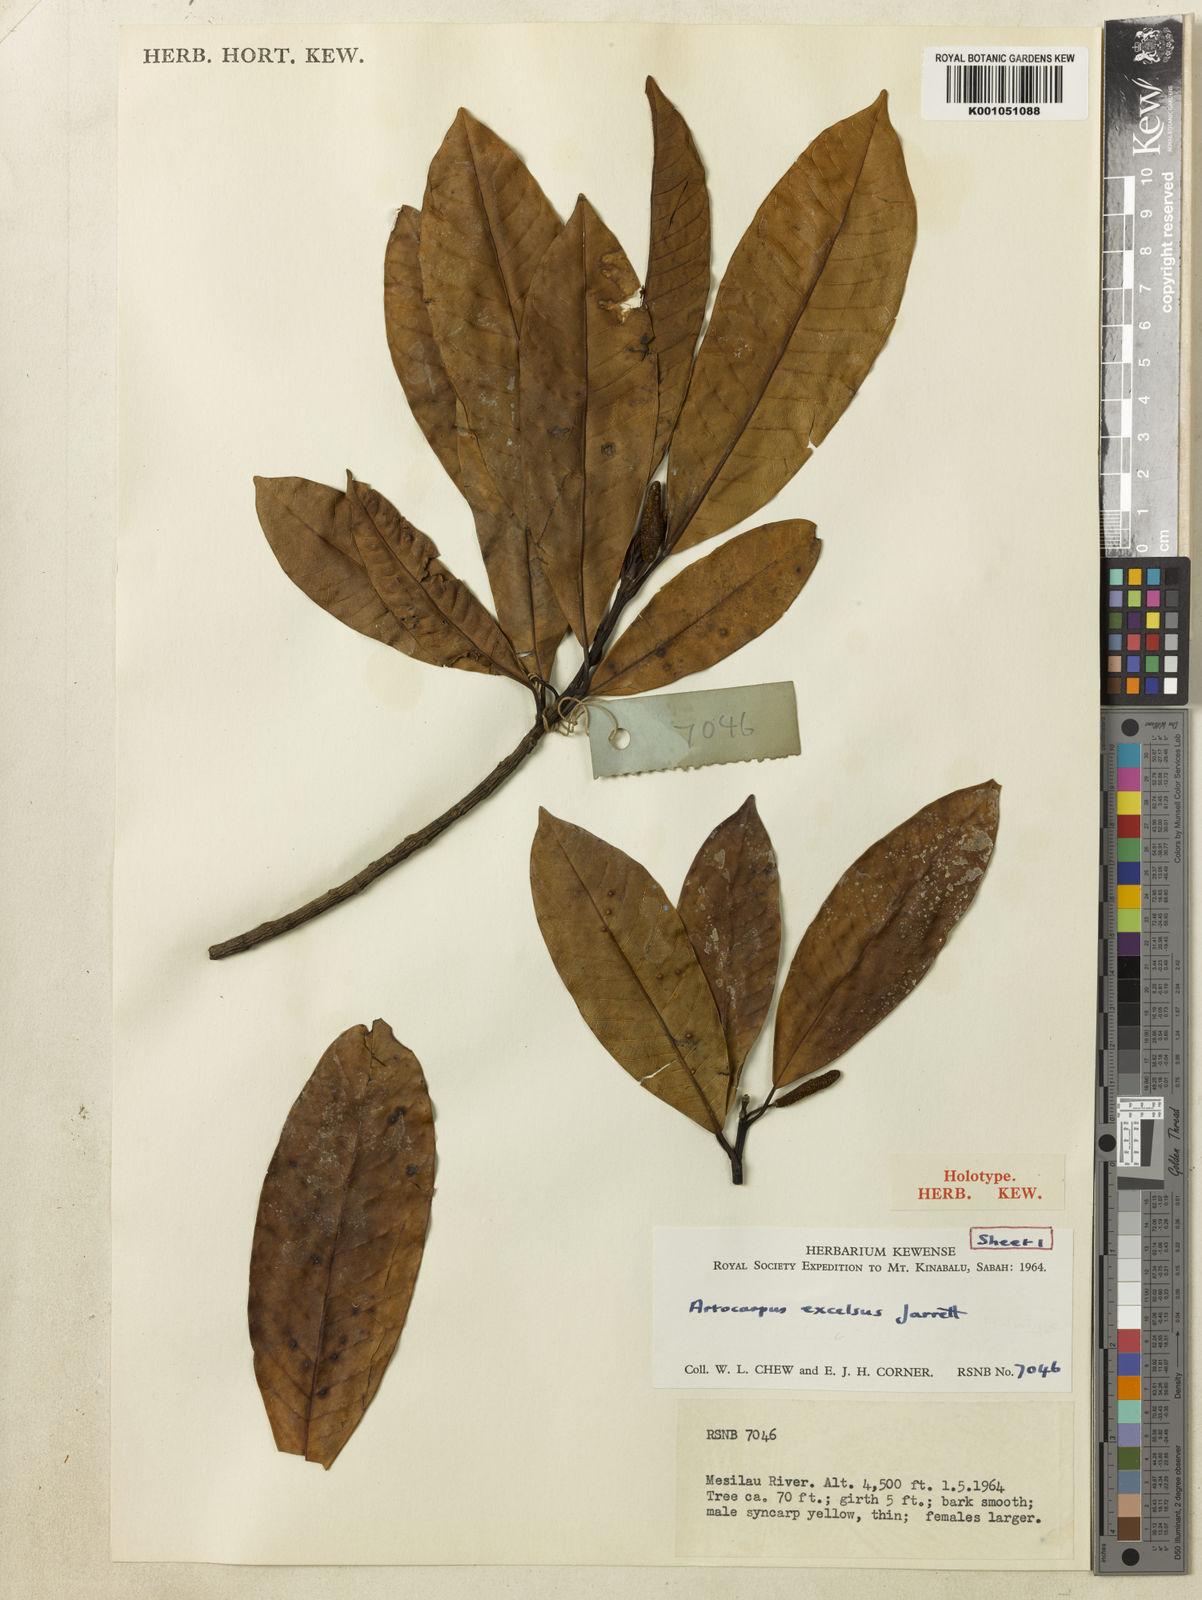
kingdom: Plantae
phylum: Tracheophyta
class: Magnoliopsida
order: Rosales
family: Moraceae
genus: Artocarpus
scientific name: Artocarpus excelsus
